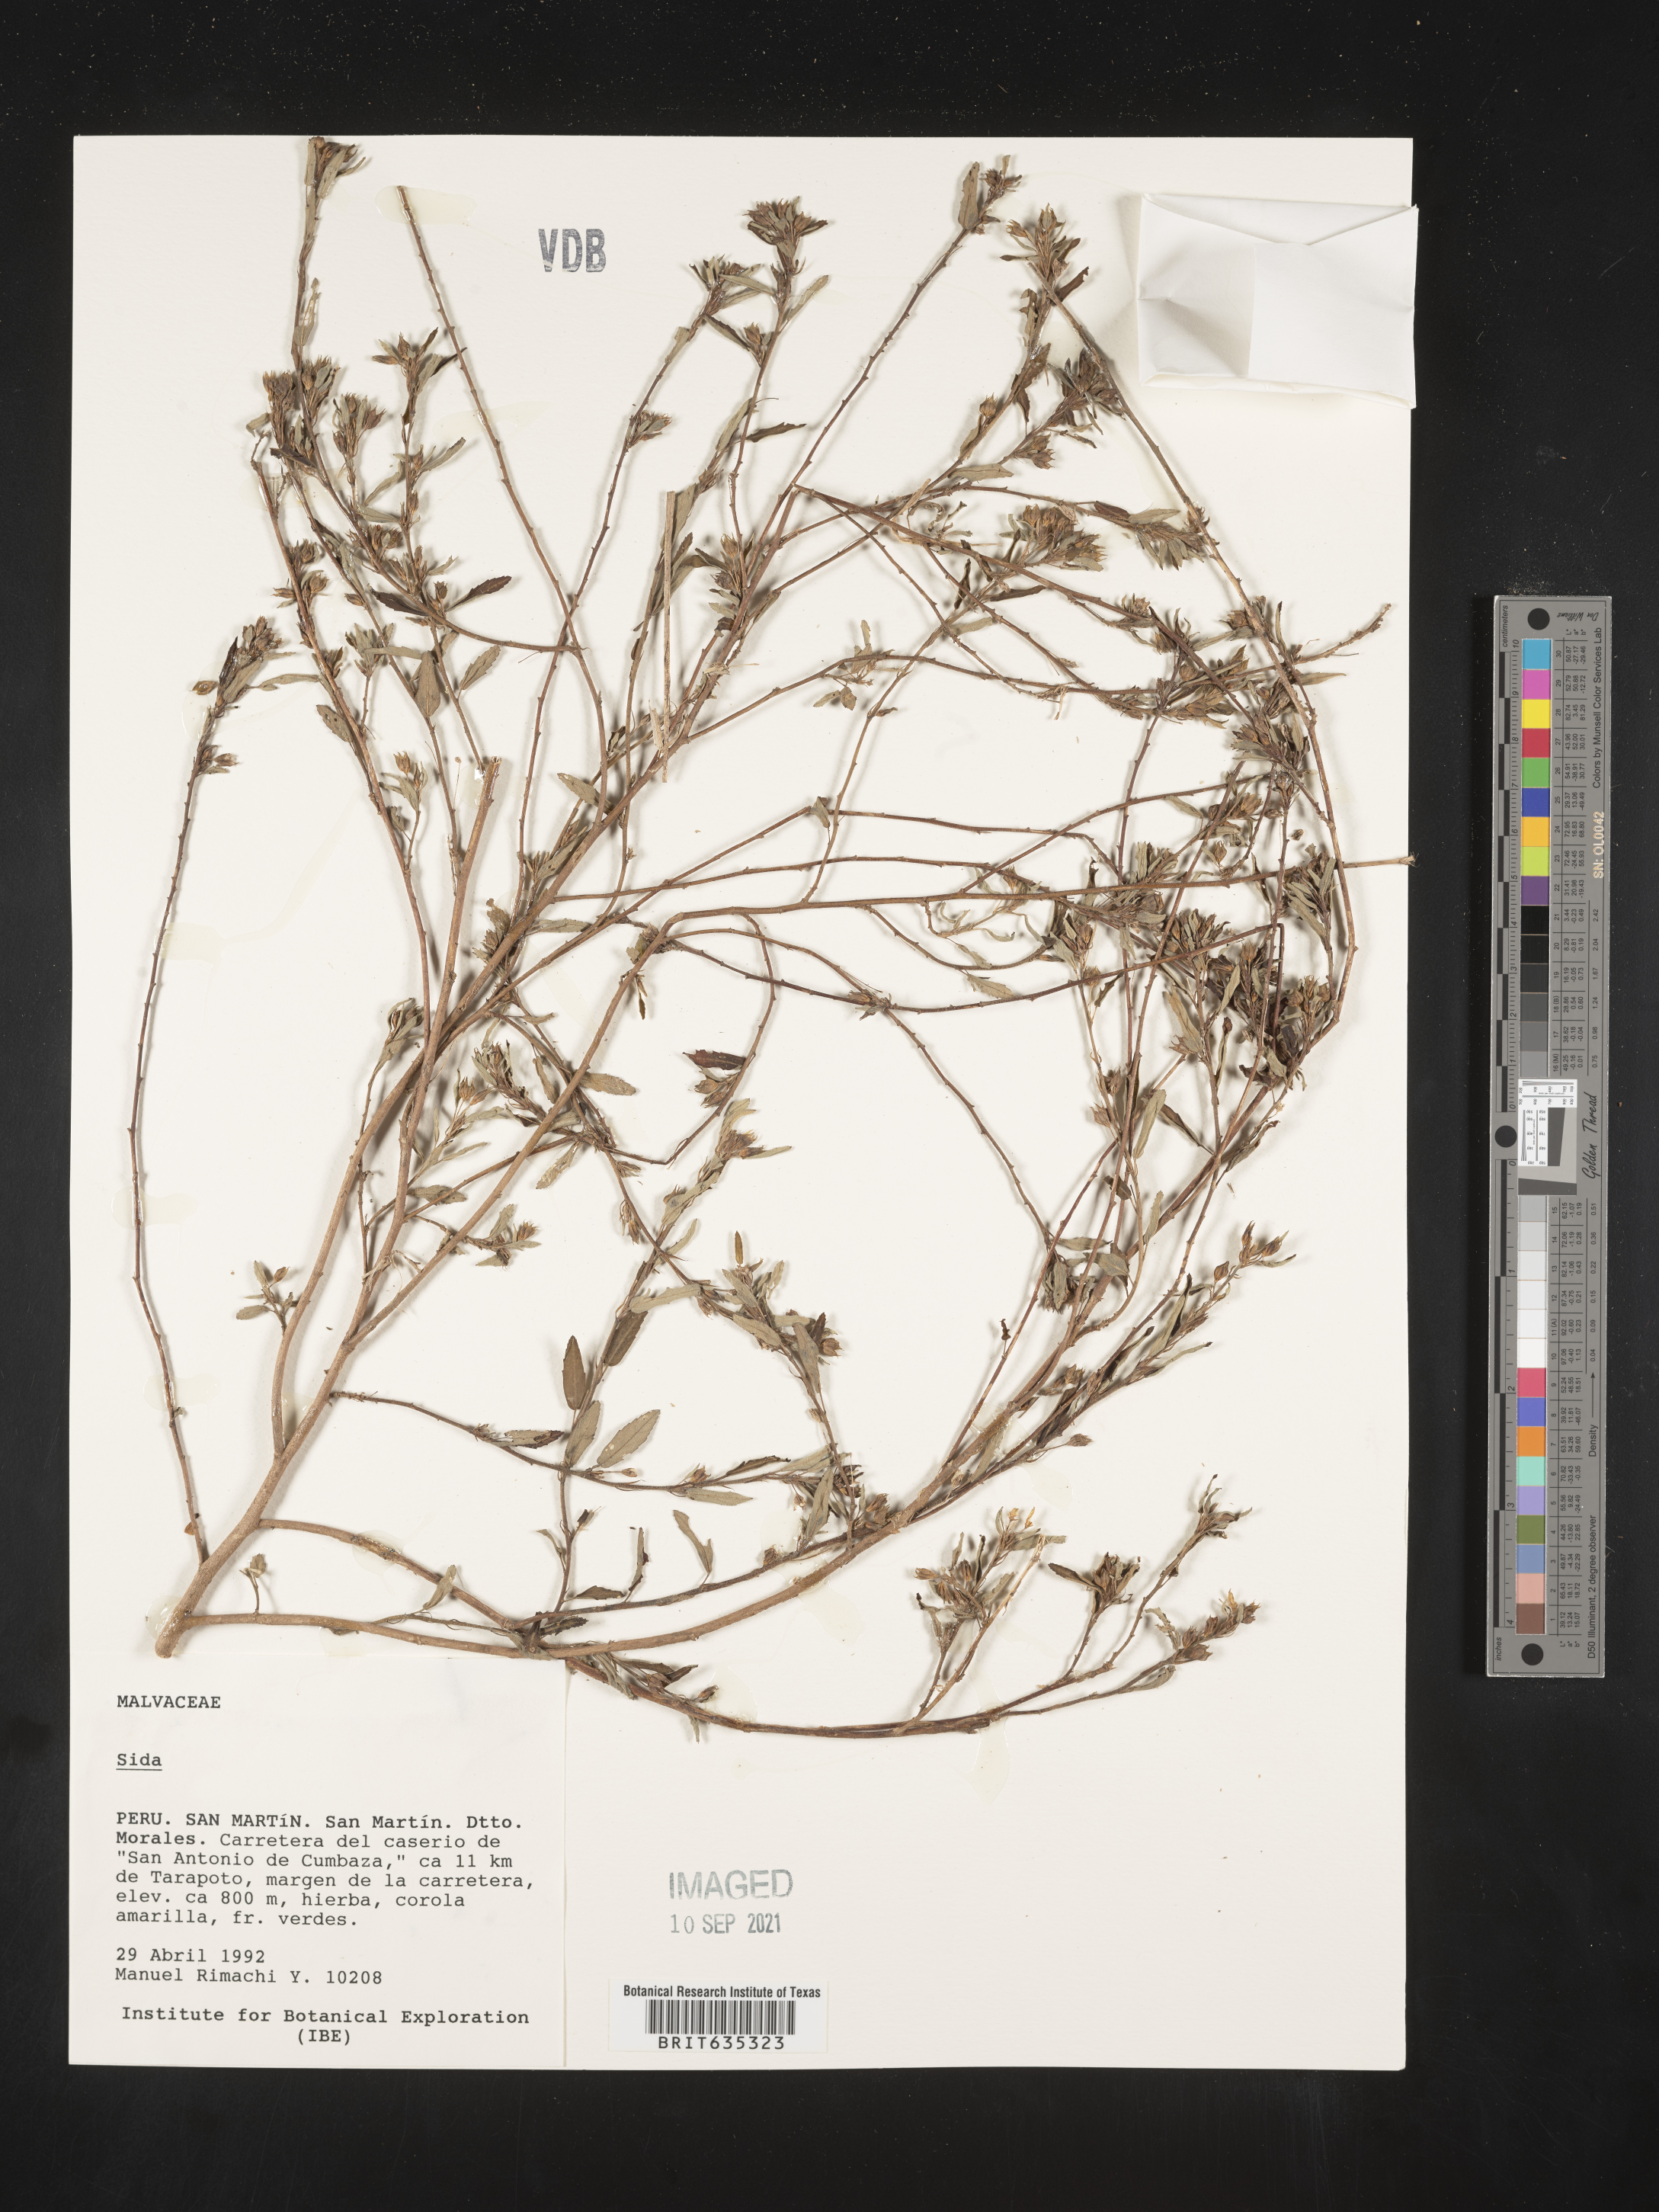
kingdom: Plantae
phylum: Tracheophyta
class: Magnoliopsida
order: Malvales
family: Malvaceae
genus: Sida
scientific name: Sida
